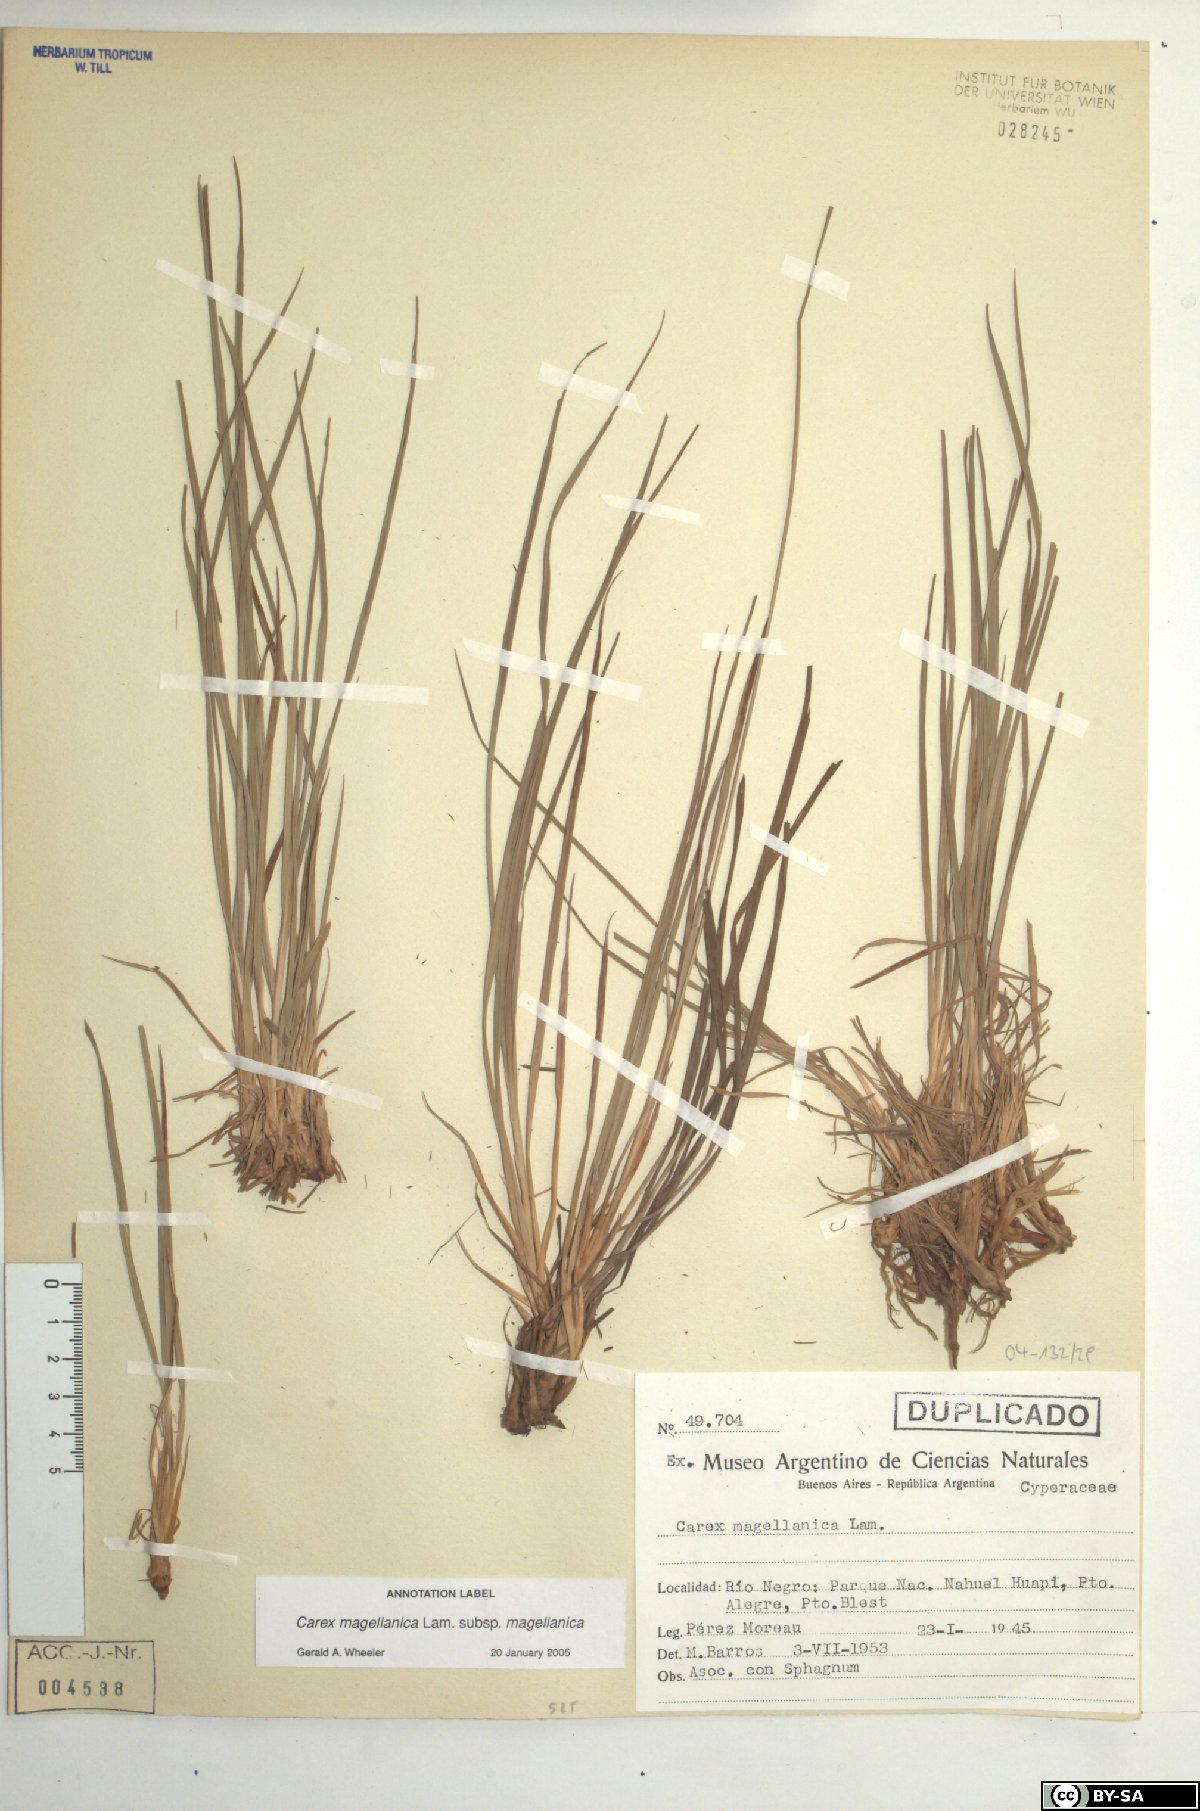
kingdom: Plantae
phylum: Tracheophyta
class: Liliopsida
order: Poales
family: Cyperaceae
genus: Carex
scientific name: Carex magellanica
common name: Bog sedge
